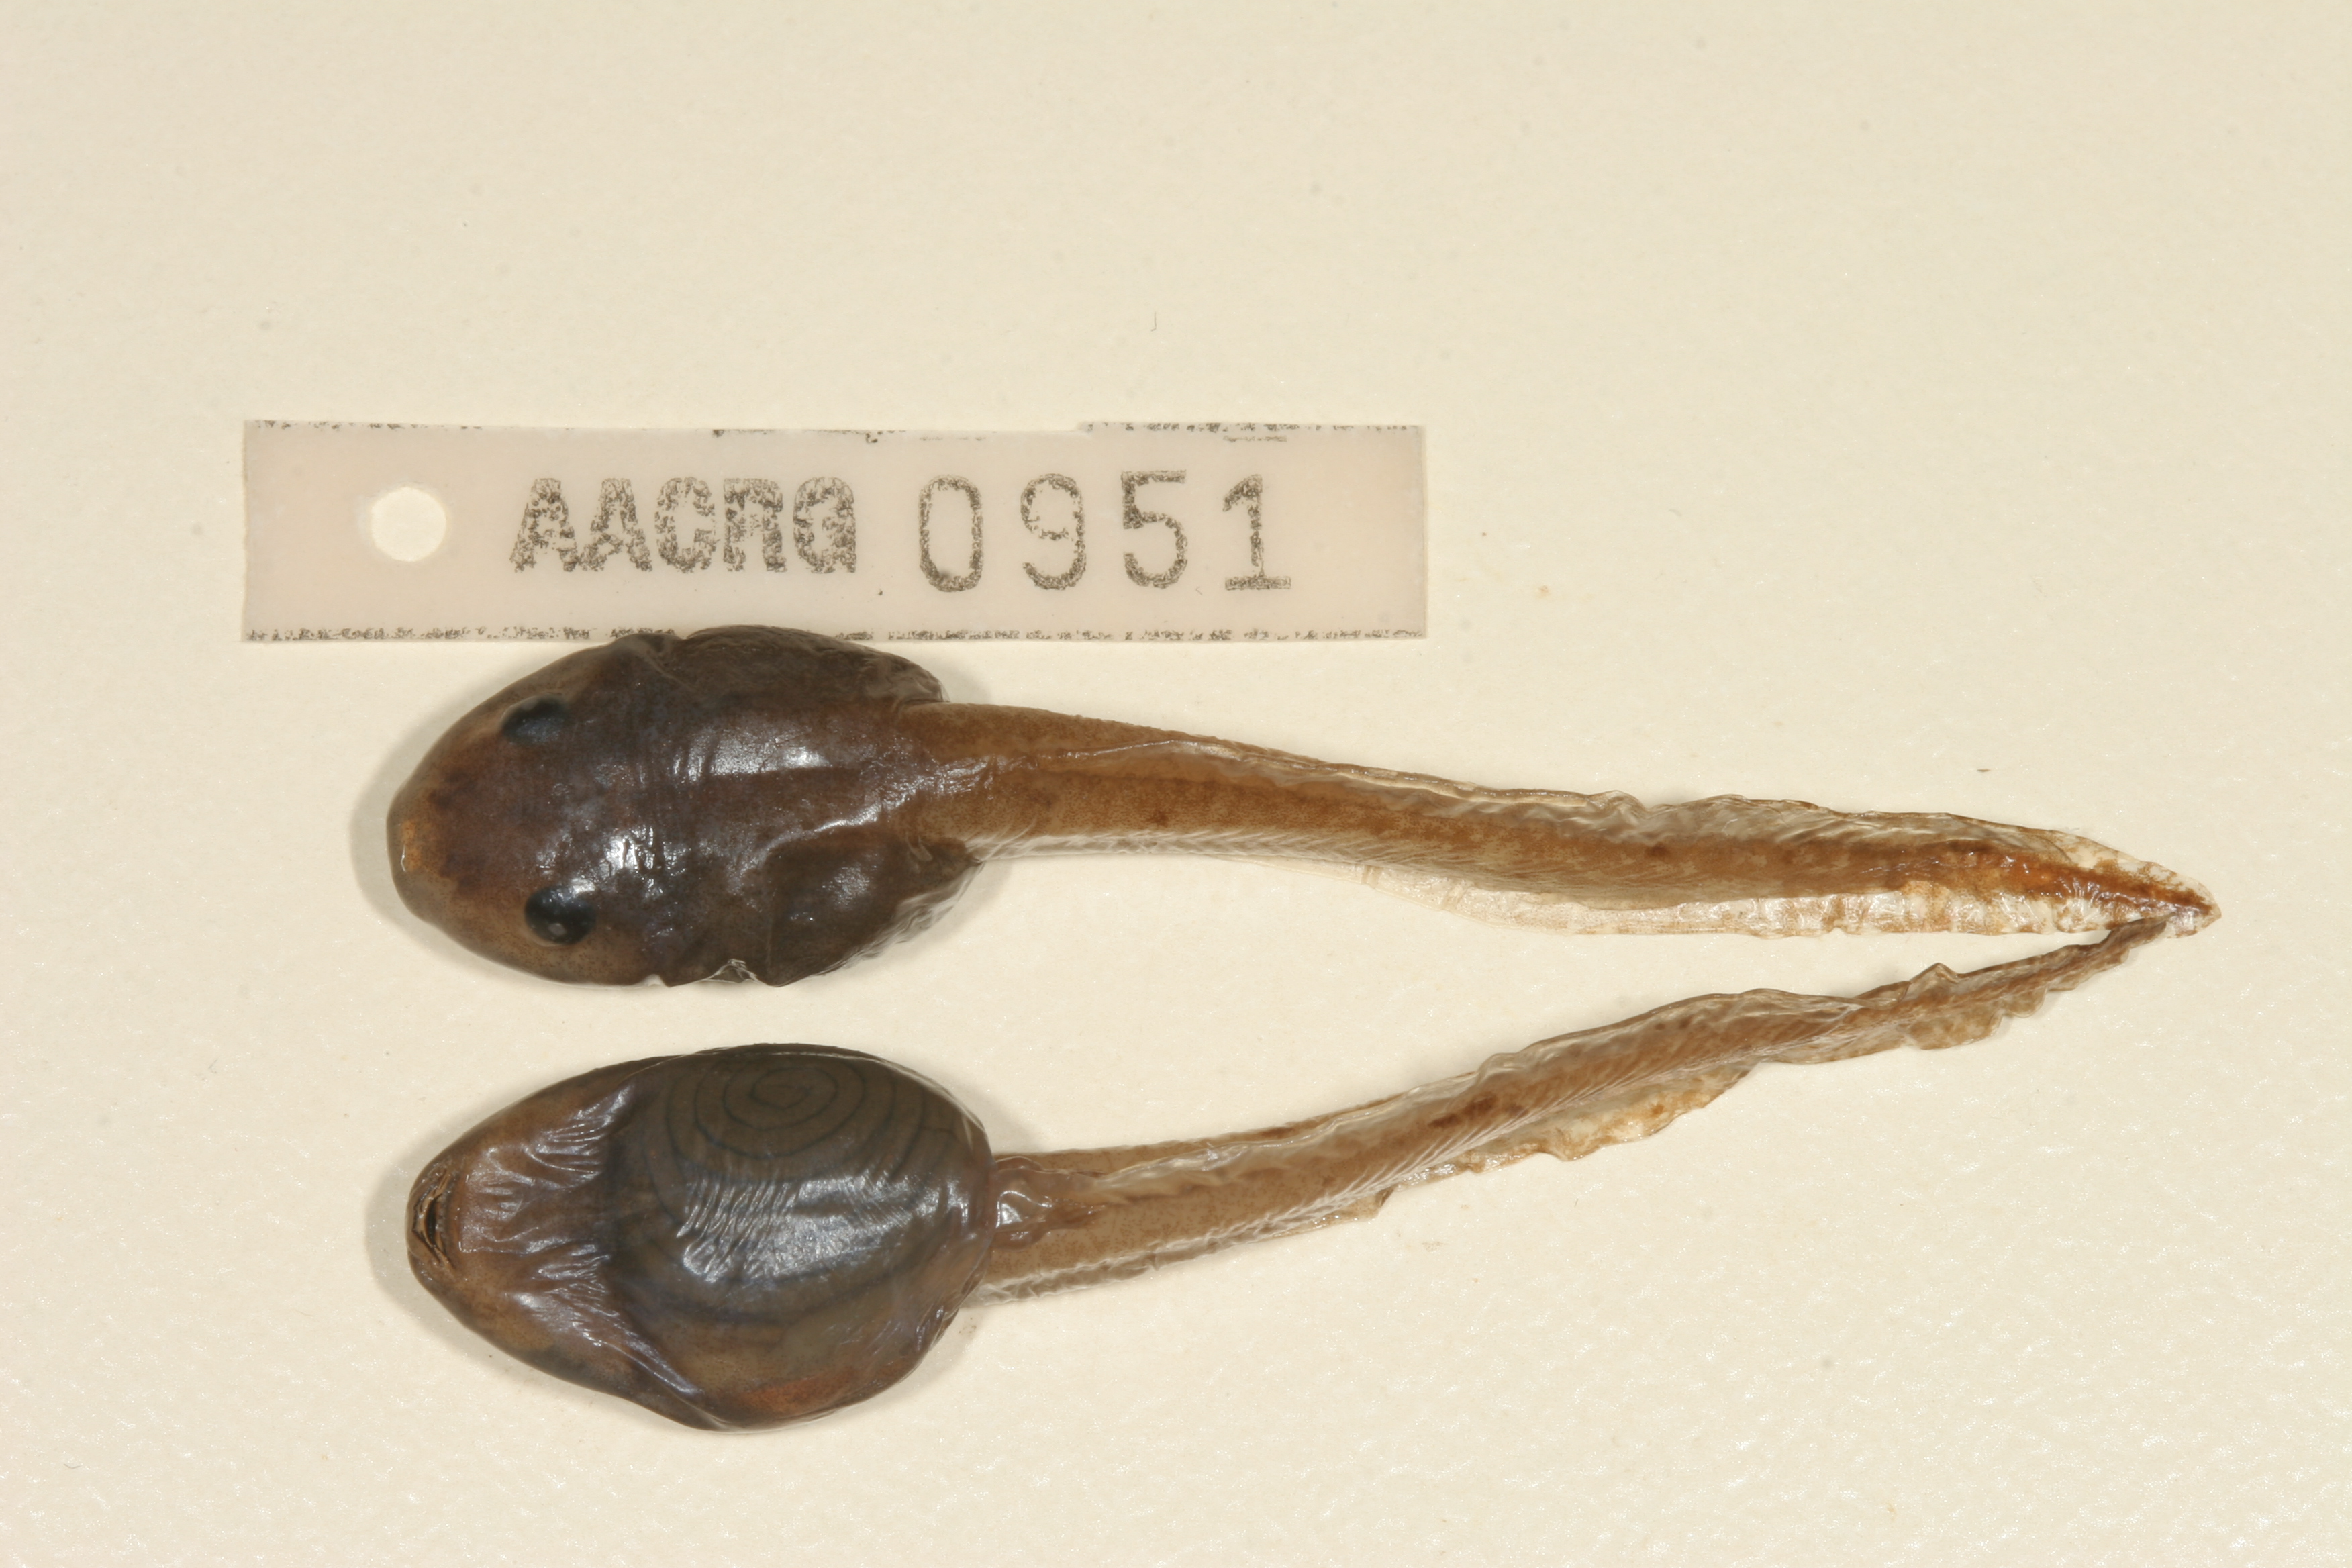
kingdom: Animalia
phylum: Chordata
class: Amphibia
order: Anura
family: Arthroleptidae
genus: Leptopelis
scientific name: Leptopelis mossambicus
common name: Mozambique tree frog
